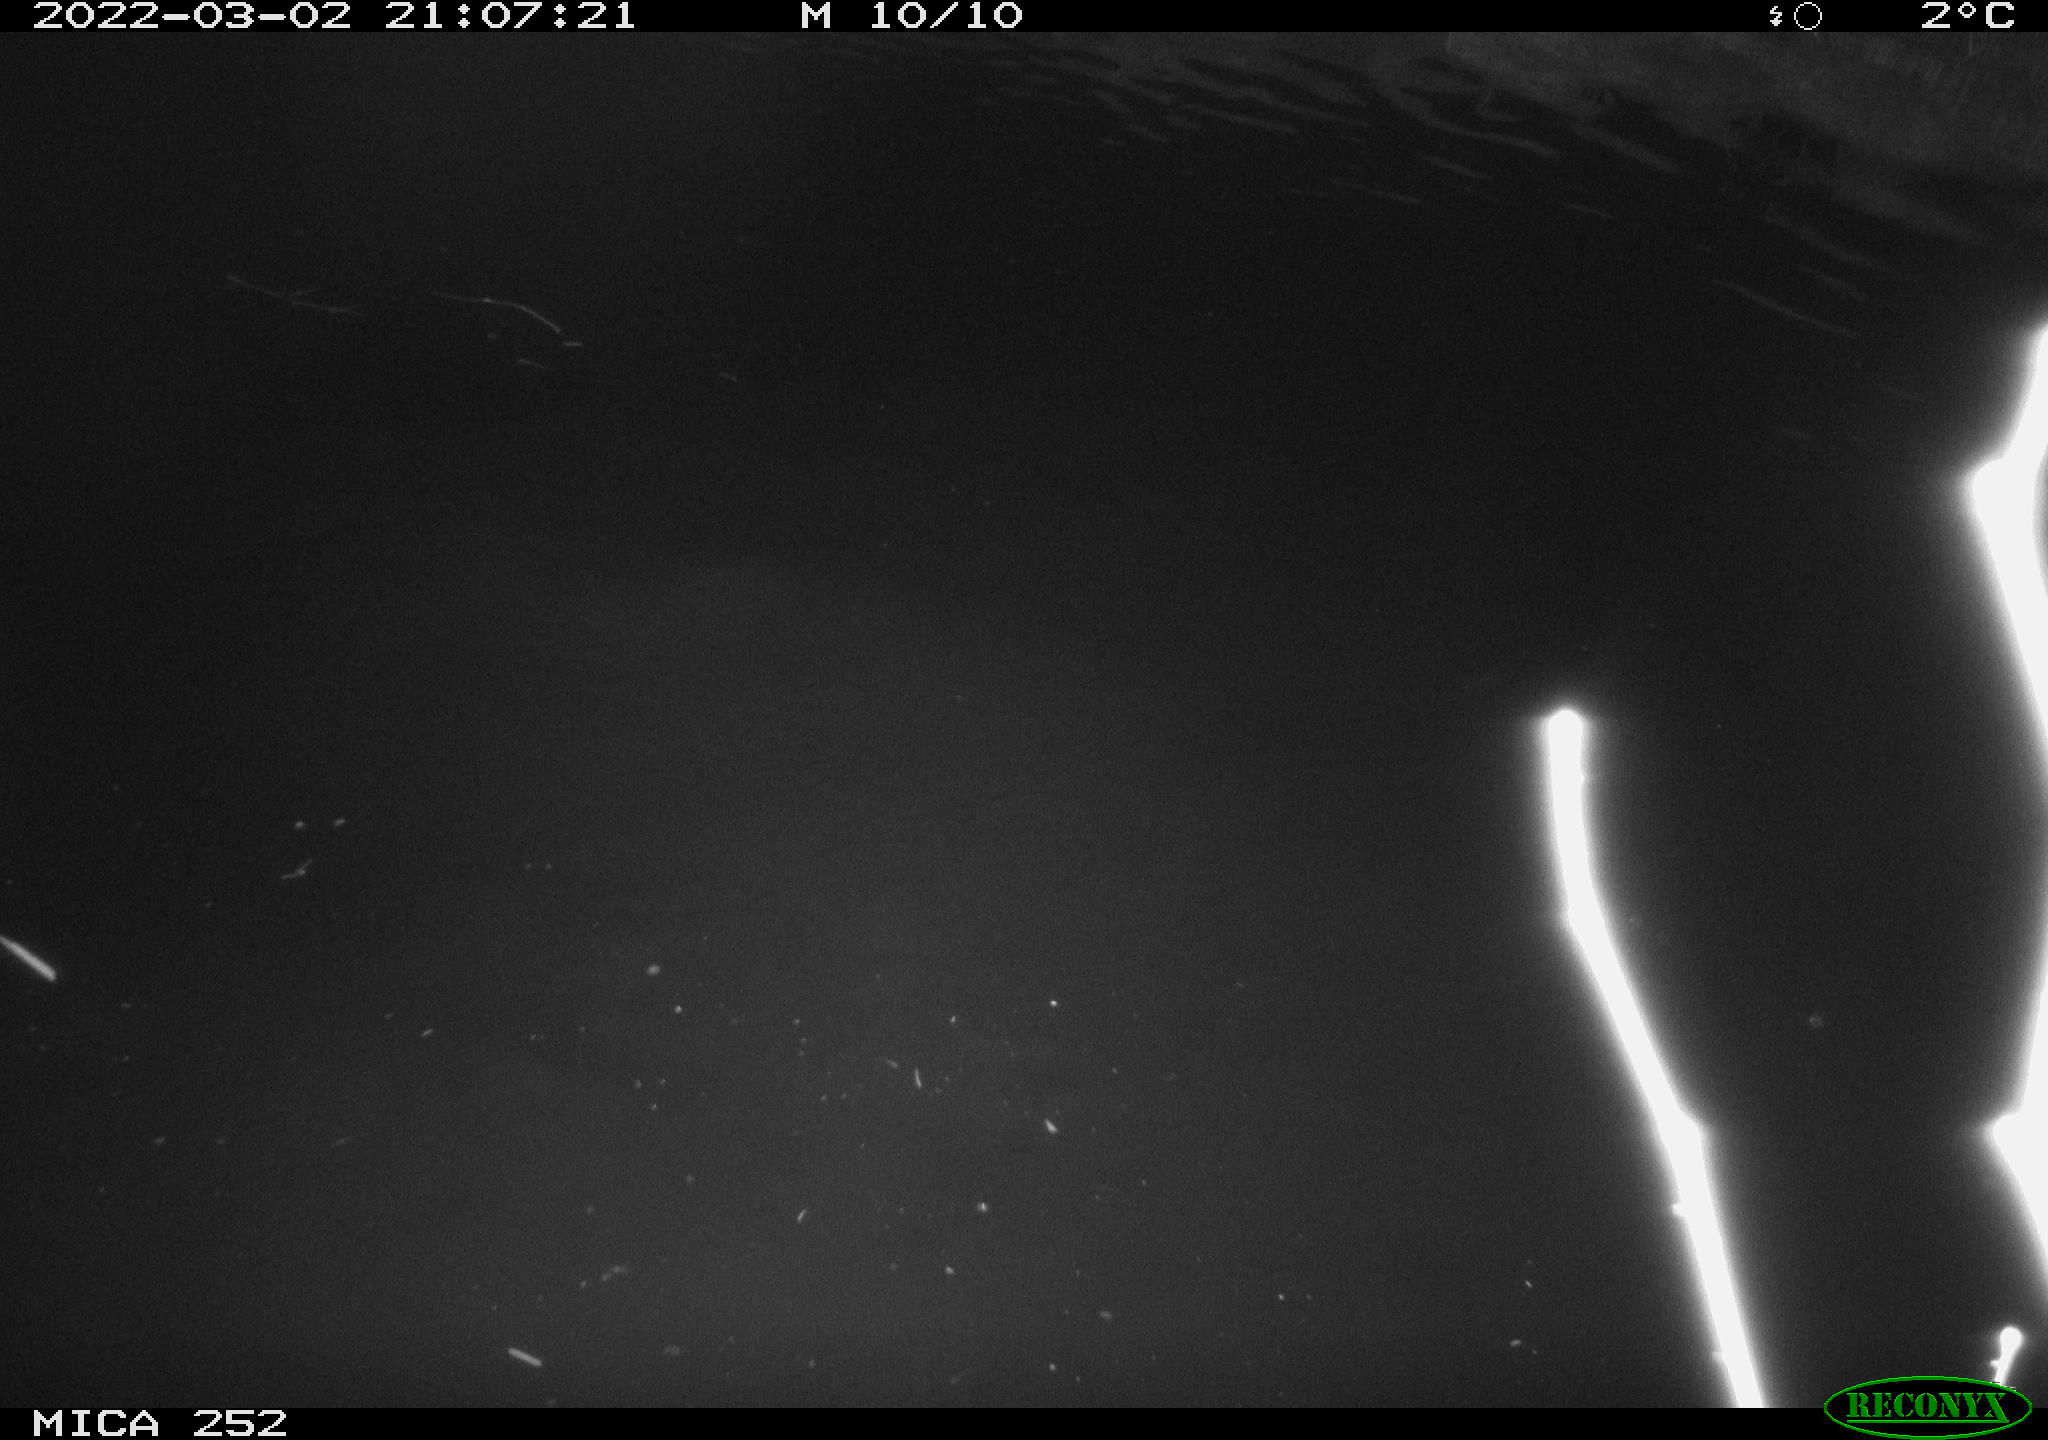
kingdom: Animalia
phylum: Chordata
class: Mammalia
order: Rodentia
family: Castoridae
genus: Castor
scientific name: Castor fiber
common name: Eurasian beaver
